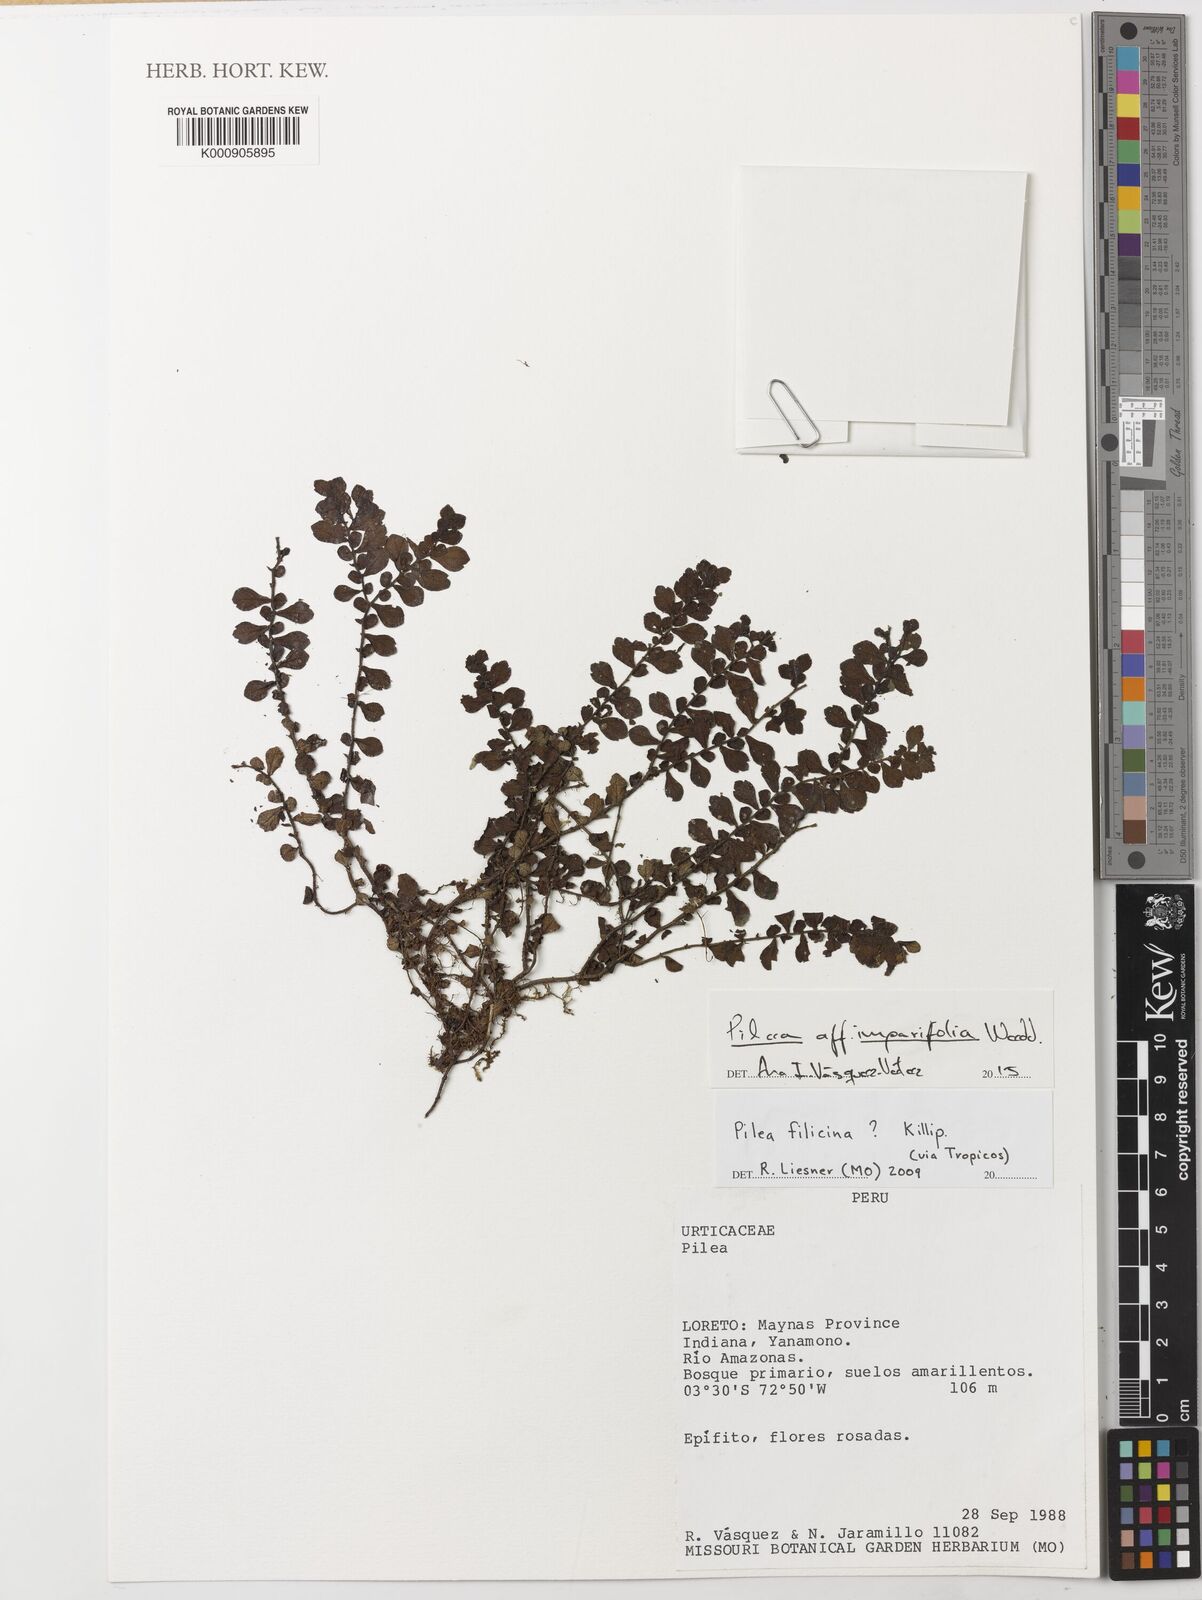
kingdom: Plantae
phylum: Tracheophyta
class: Magnoliopsida
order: Rosales
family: Urticaceae
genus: Pilea
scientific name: Pilea imparifolia
